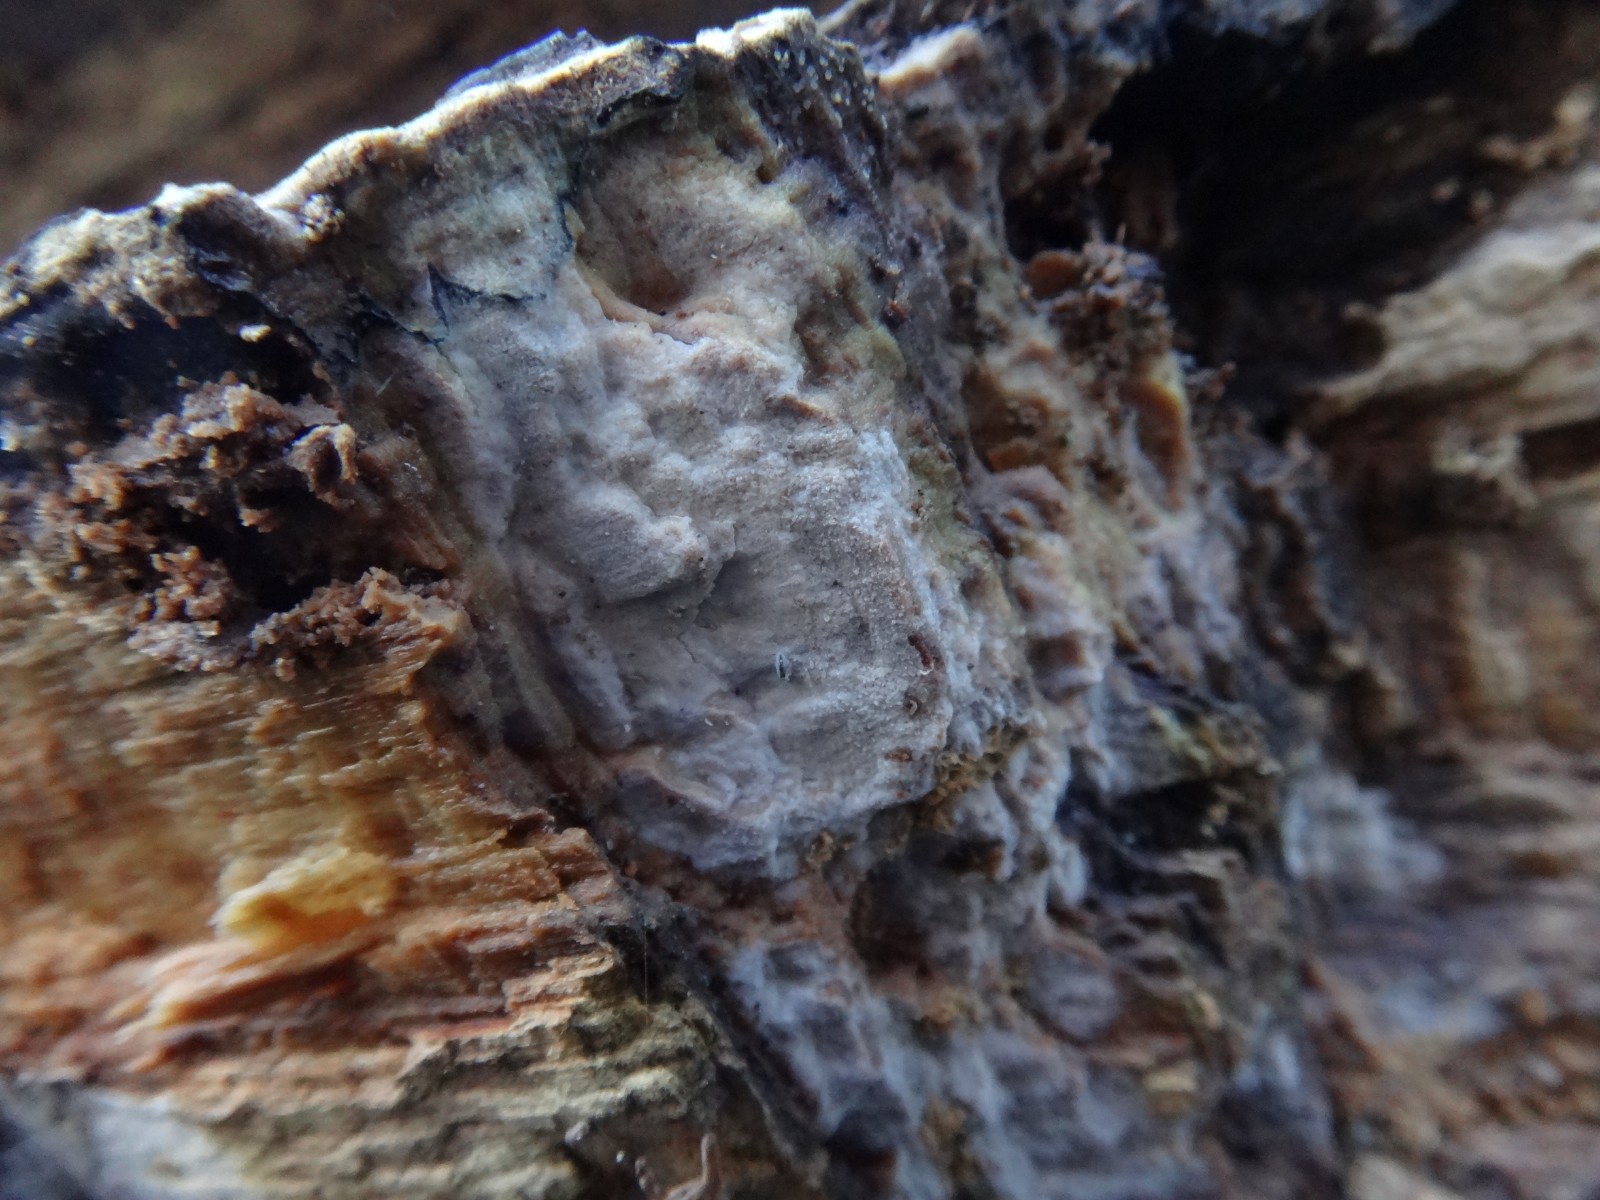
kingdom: Fungi
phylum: Basidiomycota
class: Agaricomycetes
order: Russulales
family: Stereaceae
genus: Gloeocystidiellum
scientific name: Gloeocystidiellum porosum
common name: mælkehvid olieskind
